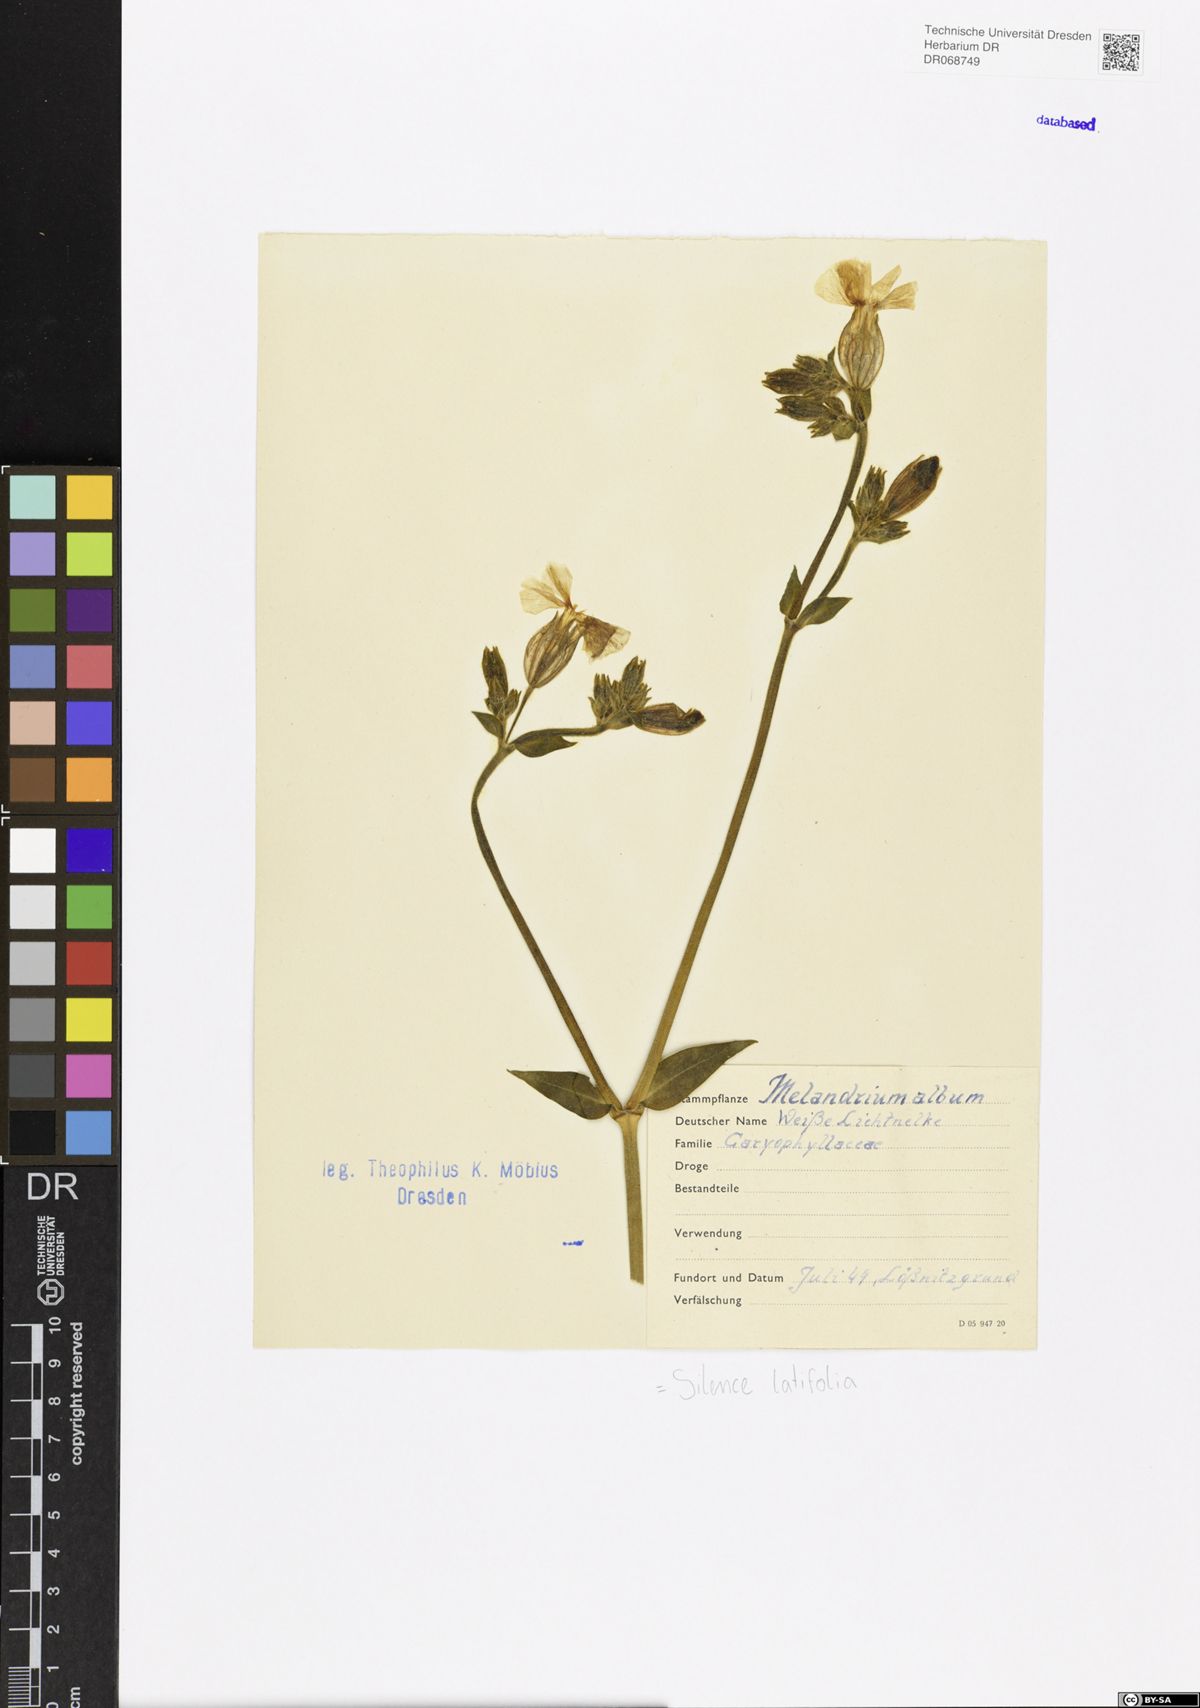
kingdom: Plantae
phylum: Tracheophyta
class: Magnoliopsida
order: Caryophyllales
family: Caryophyllaceae
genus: Silene
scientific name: Silene latifolia
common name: White campion
